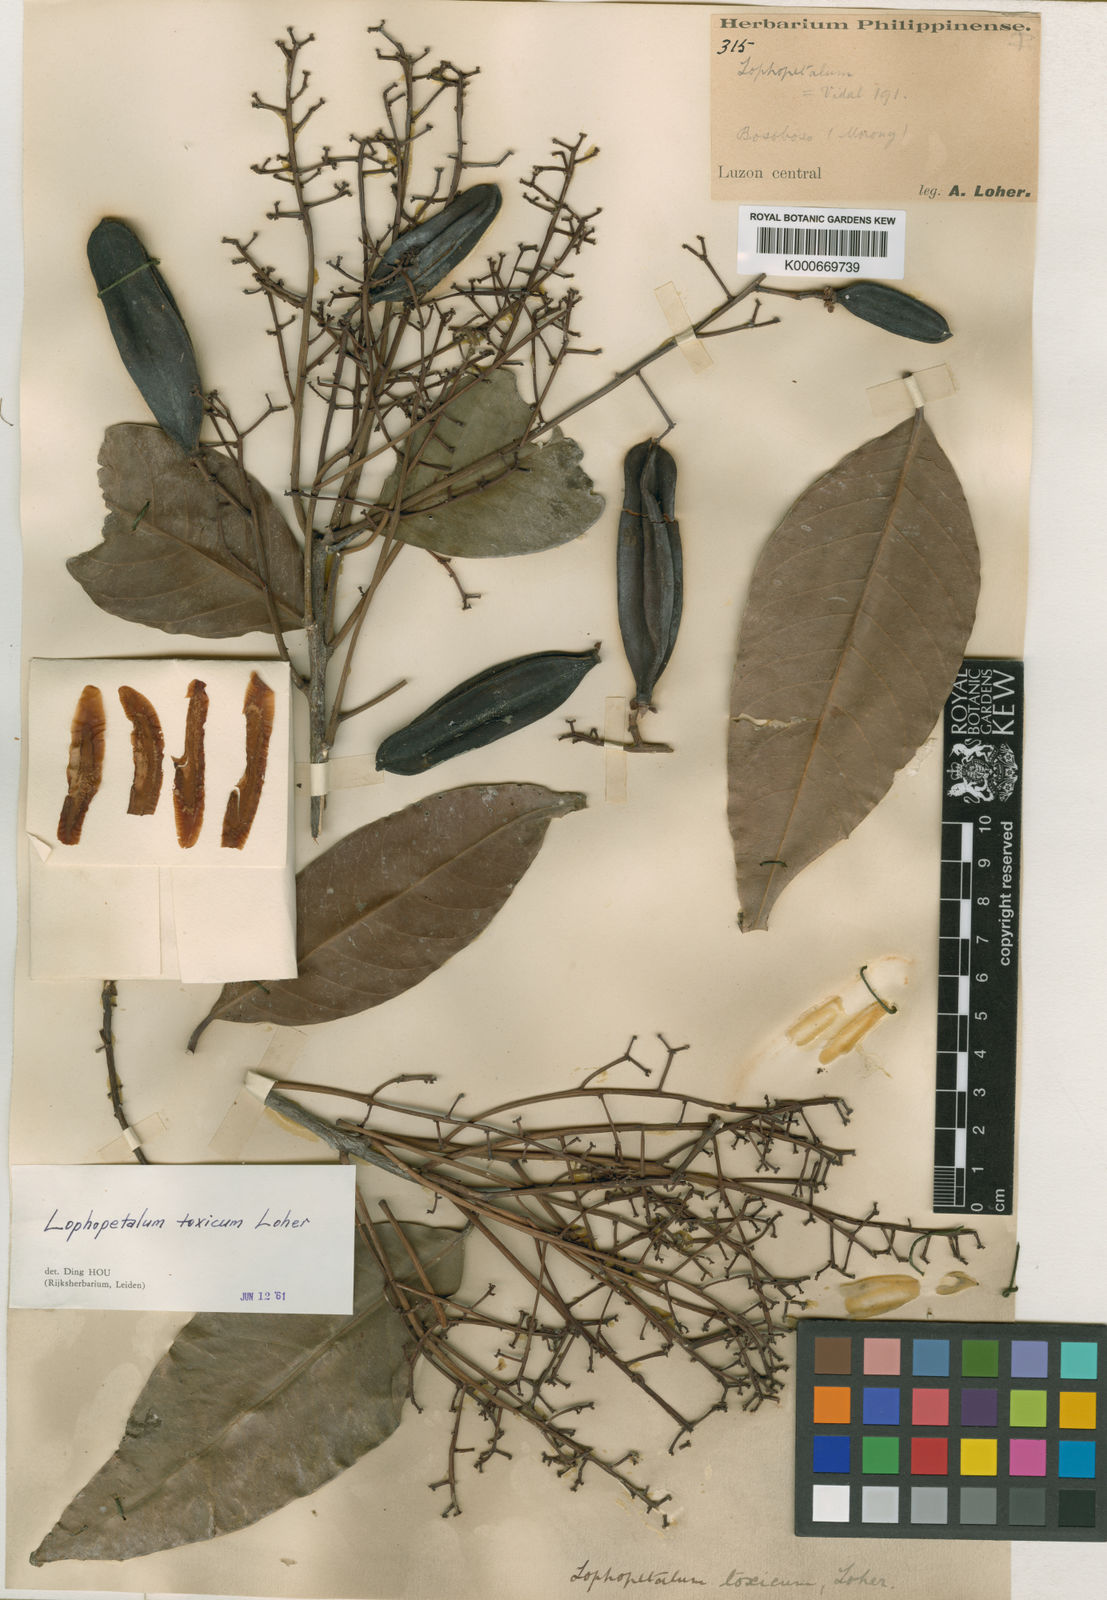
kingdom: Plantae
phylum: Tracheophyta
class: Magnoliopsida
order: Celastrales
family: Celastraceae
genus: Lophopetalum
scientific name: Lophopetalum
